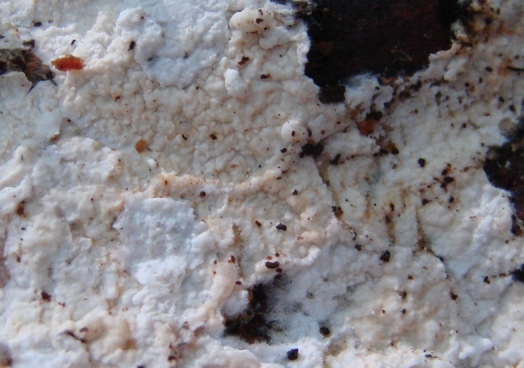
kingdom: Fungi
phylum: Basidiomycota
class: Agaricomycetes
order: Atheliales
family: Atheliaceae
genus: Leptosporomyces
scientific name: Leptosporomyces fuscostratus
